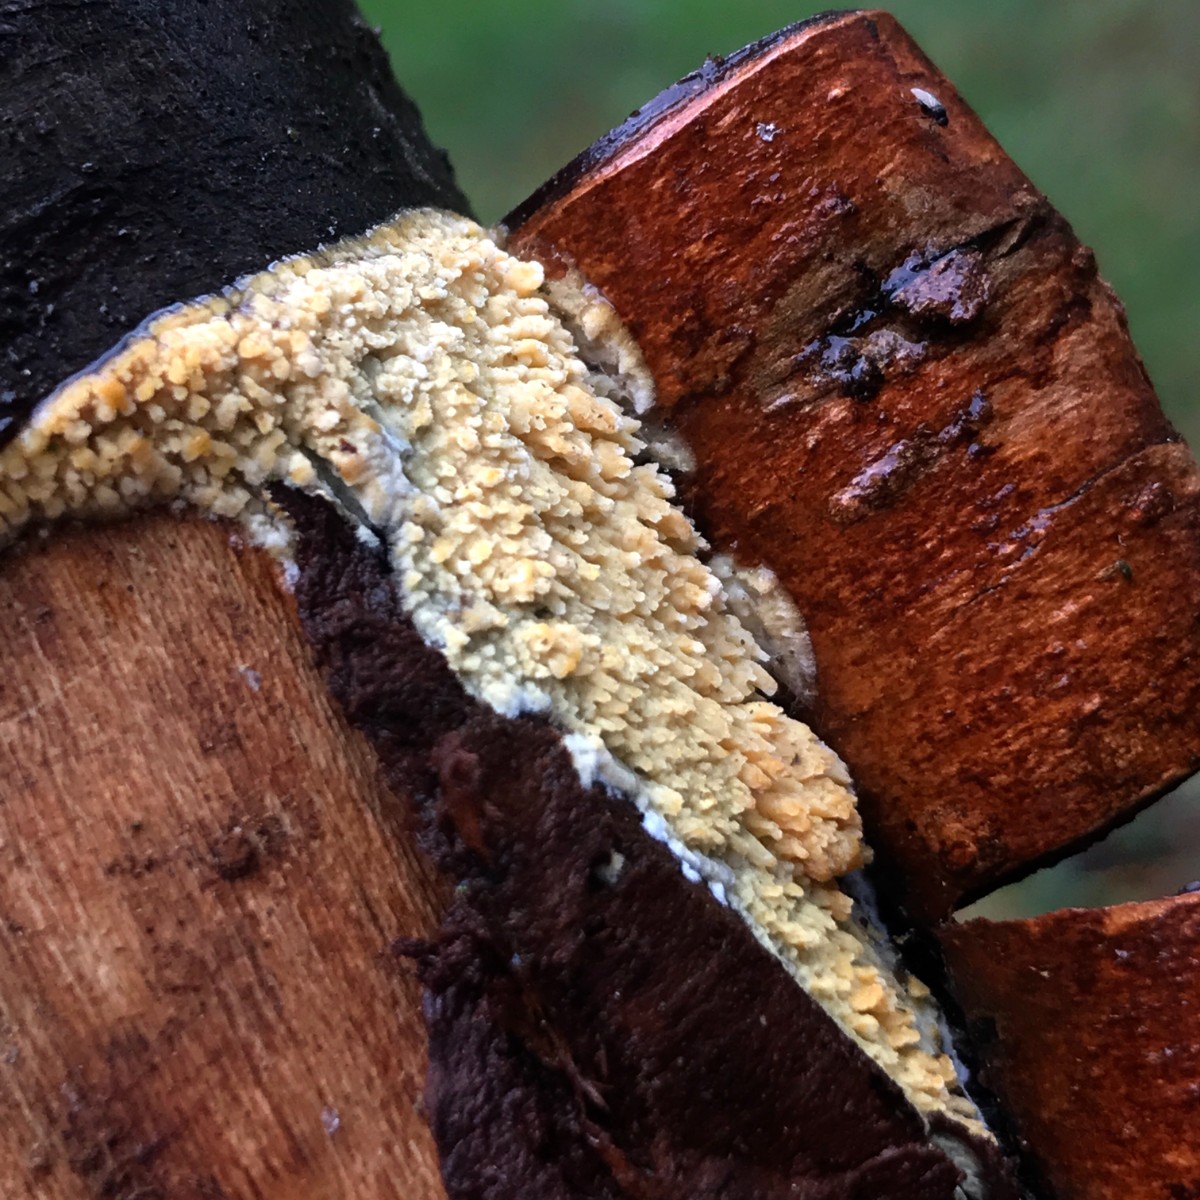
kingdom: Fungi
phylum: Basidiomycota
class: Agaricomycetes
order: Hymenochaetales
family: Schizoporaceae
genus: Xylodon
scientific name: Xylodon radula
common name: grovtandet kalkskind
